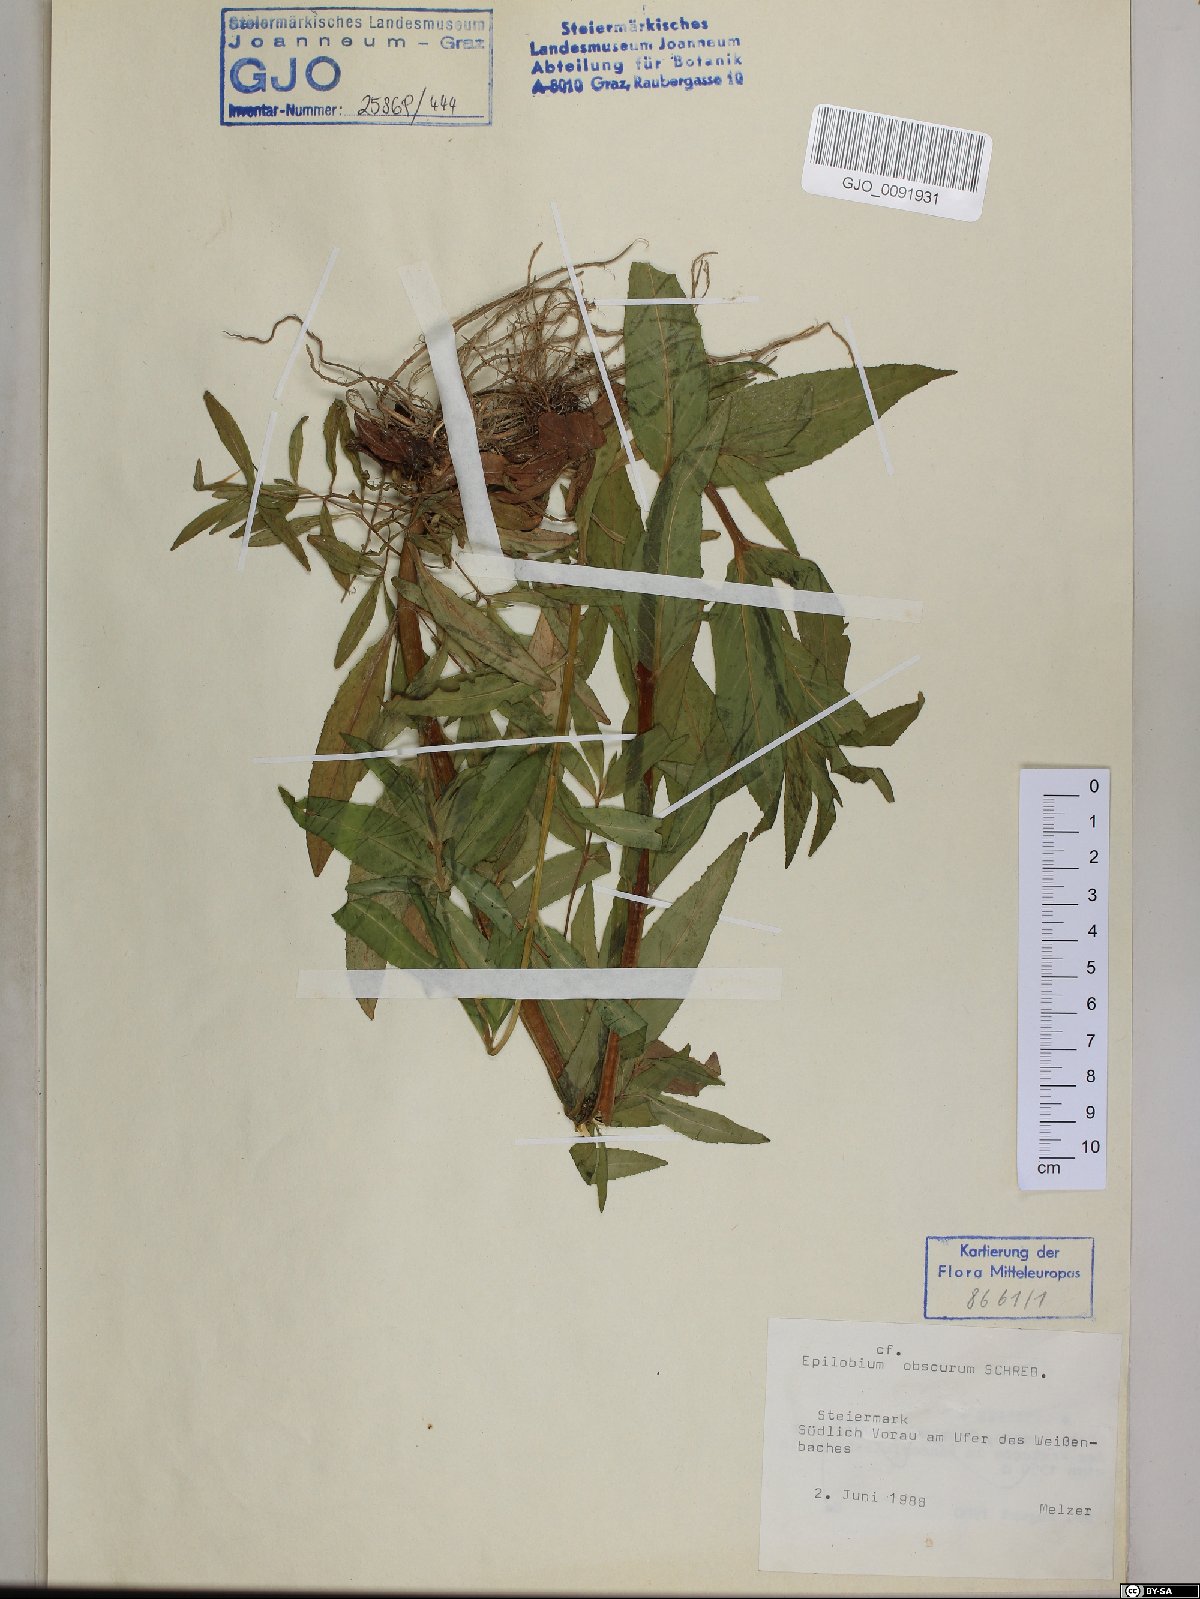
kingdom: Plantae
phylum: Tracheophyta
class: Magnoliopsida
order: Myrtales
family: Onagraceae
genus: Epilobium
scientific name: Epilobium obscurum
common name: Short-fruited willowherb
